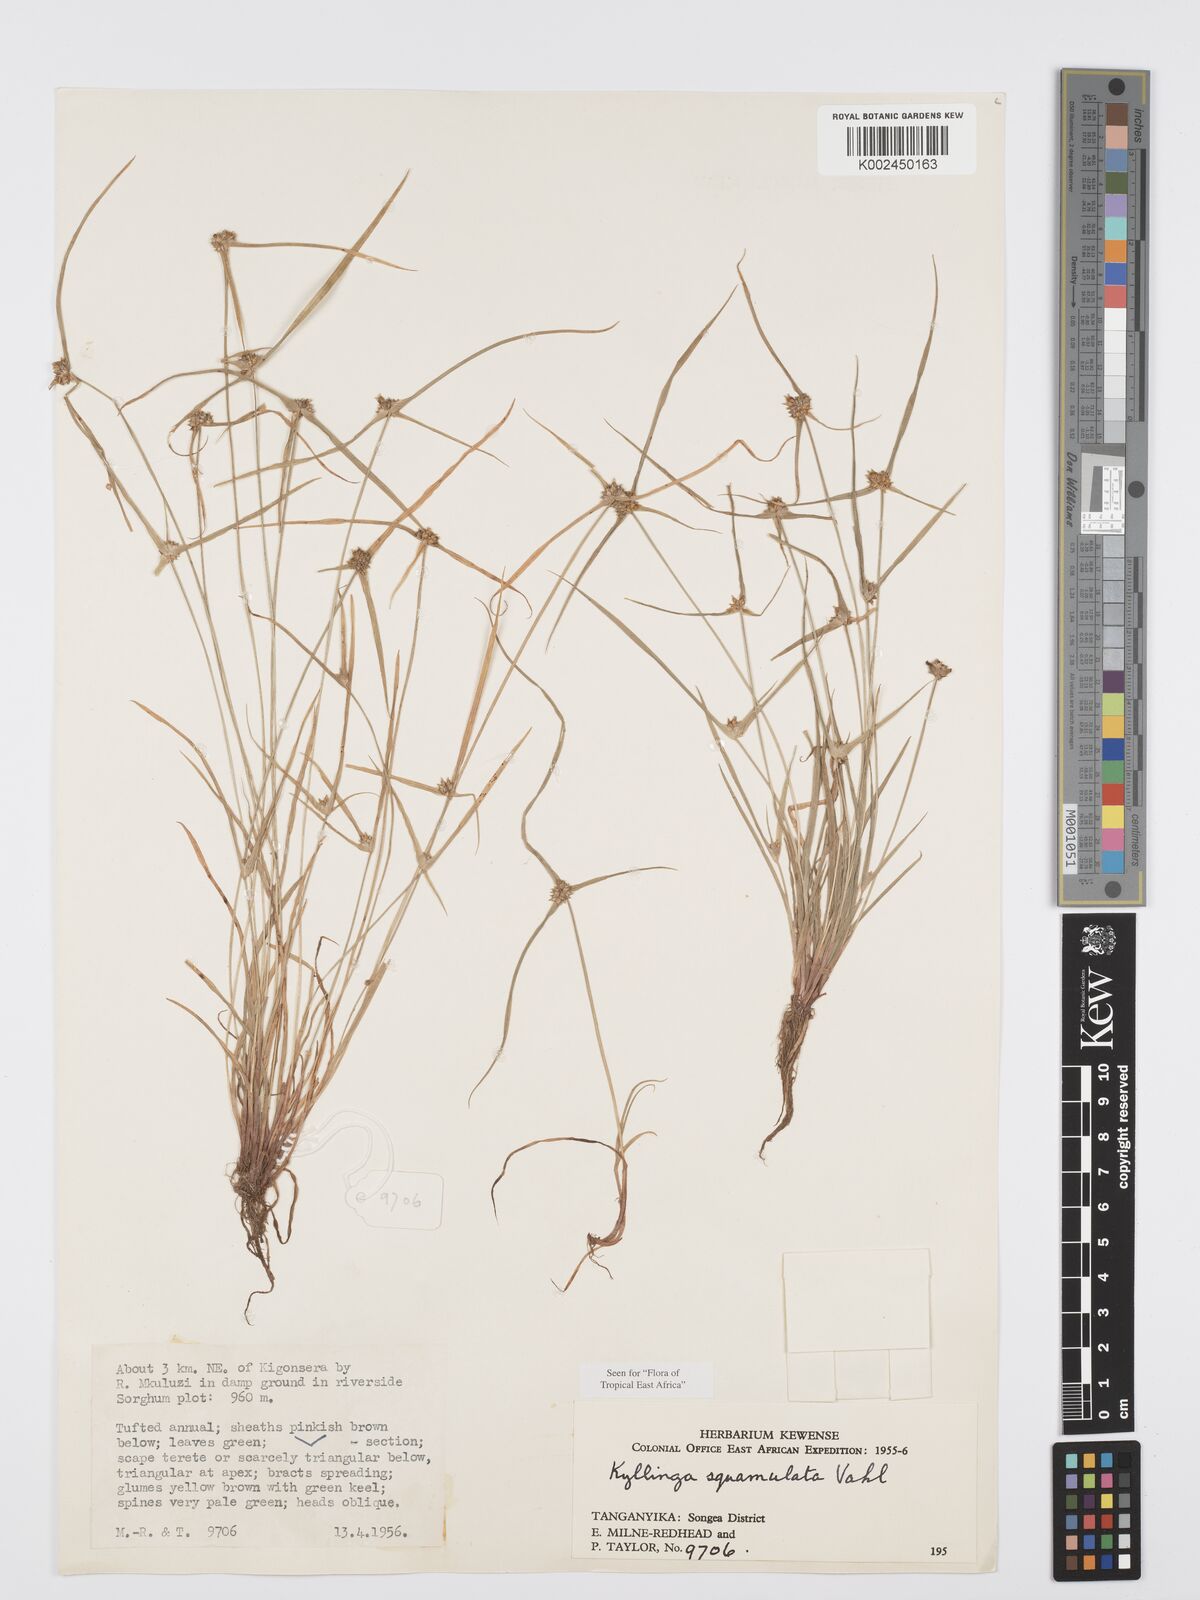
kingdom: Plantae
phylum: Tracheophyta
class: Liliopsida
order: Poales
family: Cyperaceae
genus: Cyperus
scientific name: Cyperus distans
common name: Slender cyperus
